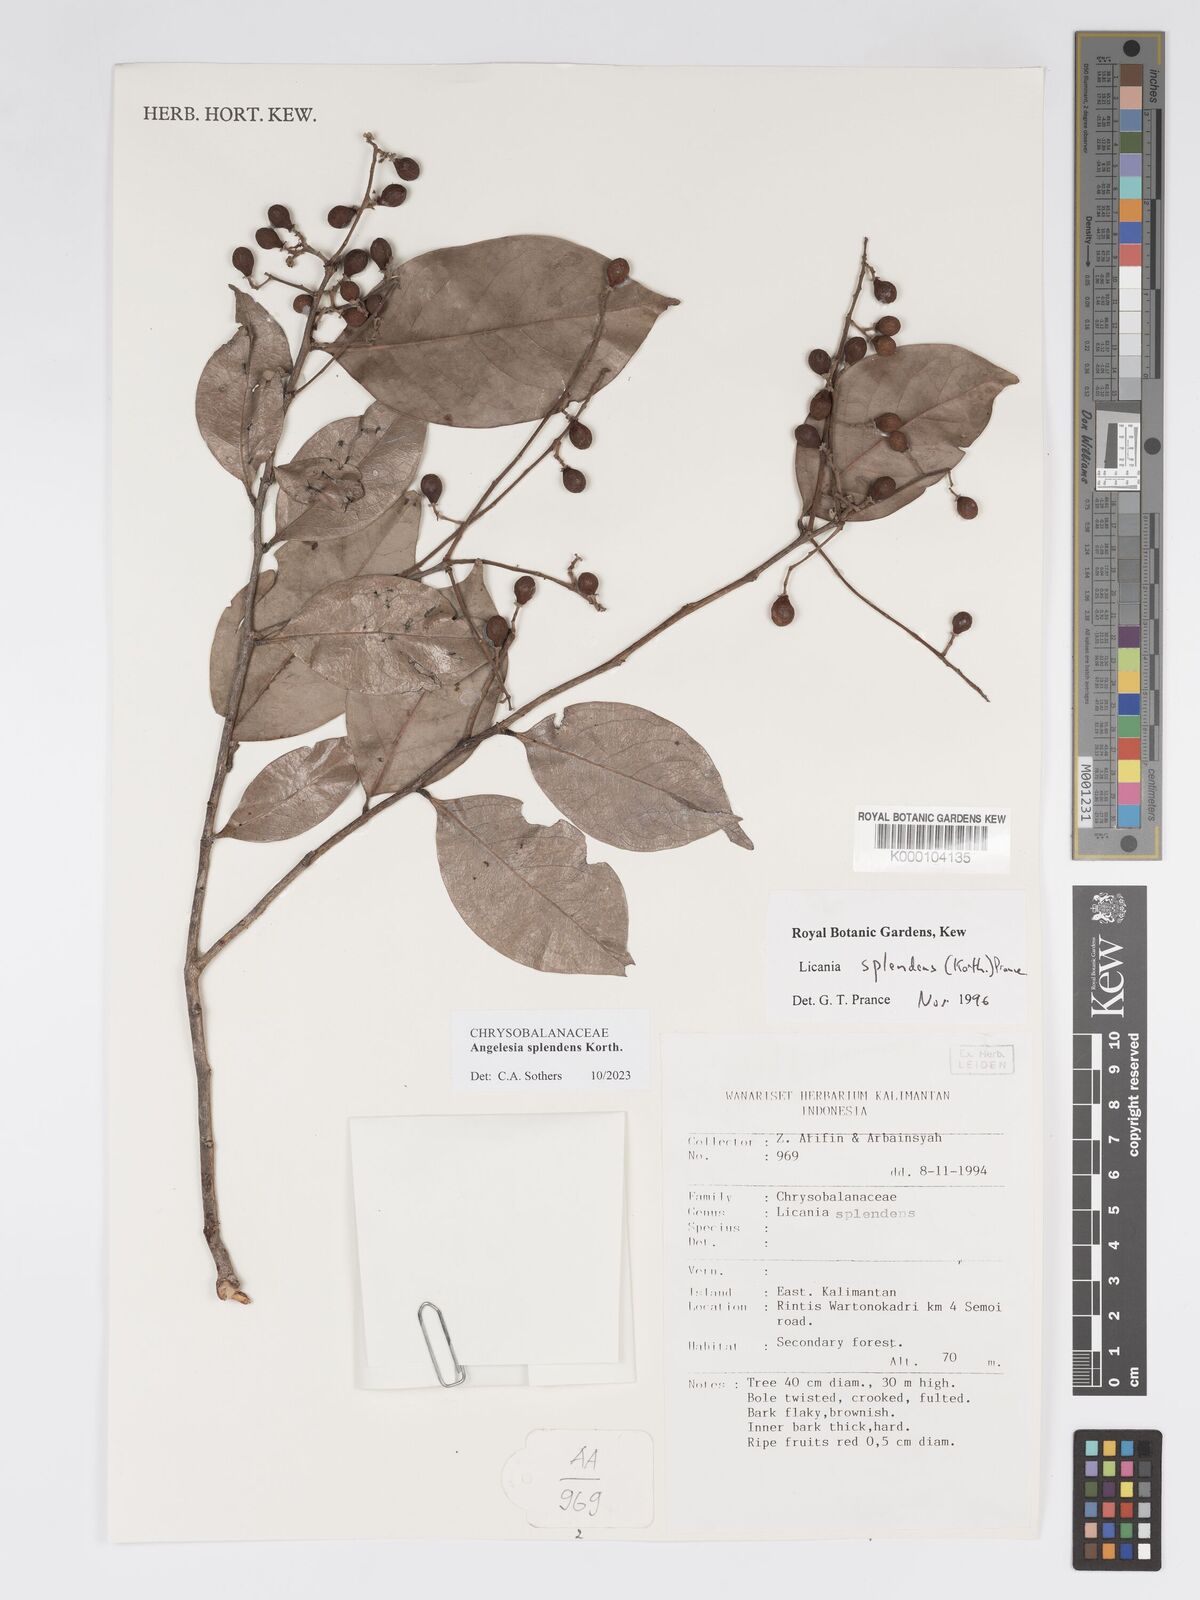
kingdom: Plantae
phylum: Tracheophyta
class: Magnoliopsida
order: Malpighiales
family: Chrysobalanaceae
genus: Angelesia
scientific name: Angelesia splendens
